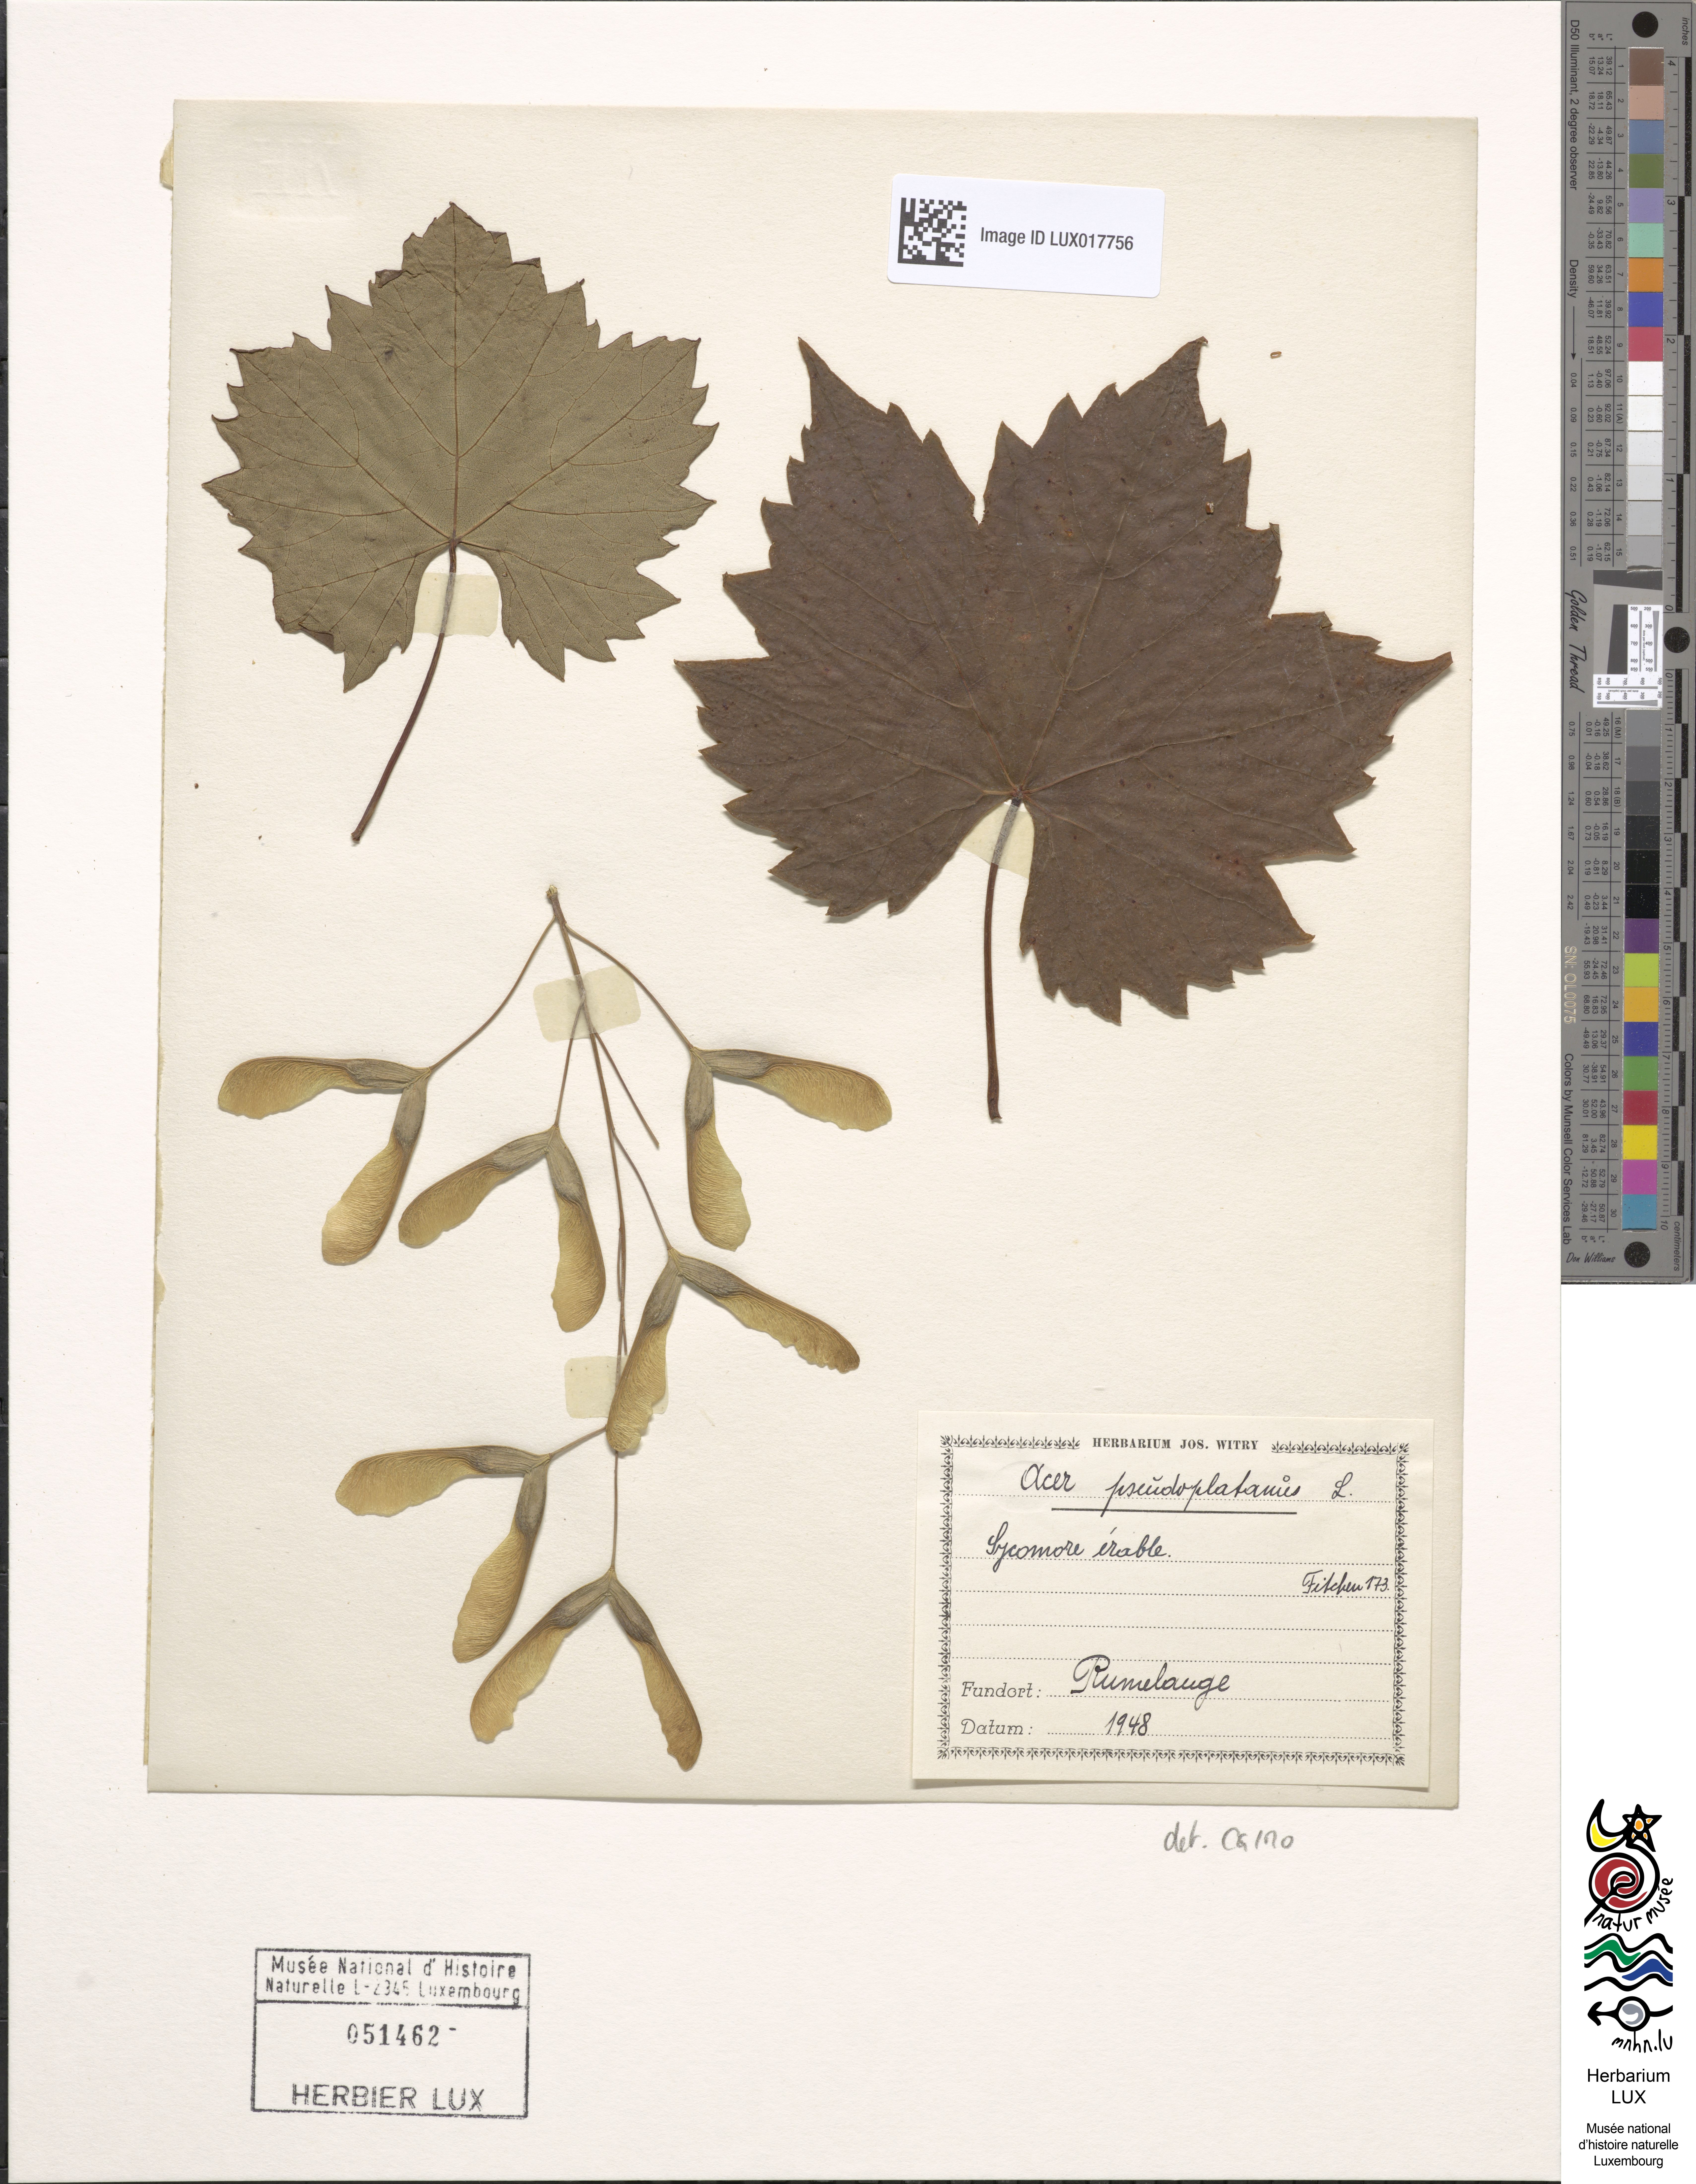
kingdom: Plantae
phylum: Tracheophyta
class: Magnoliopsida
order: Sapindales
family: Sapindaceae
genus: Acer
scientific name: Acer pseudoplatanus
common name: Sycamore
